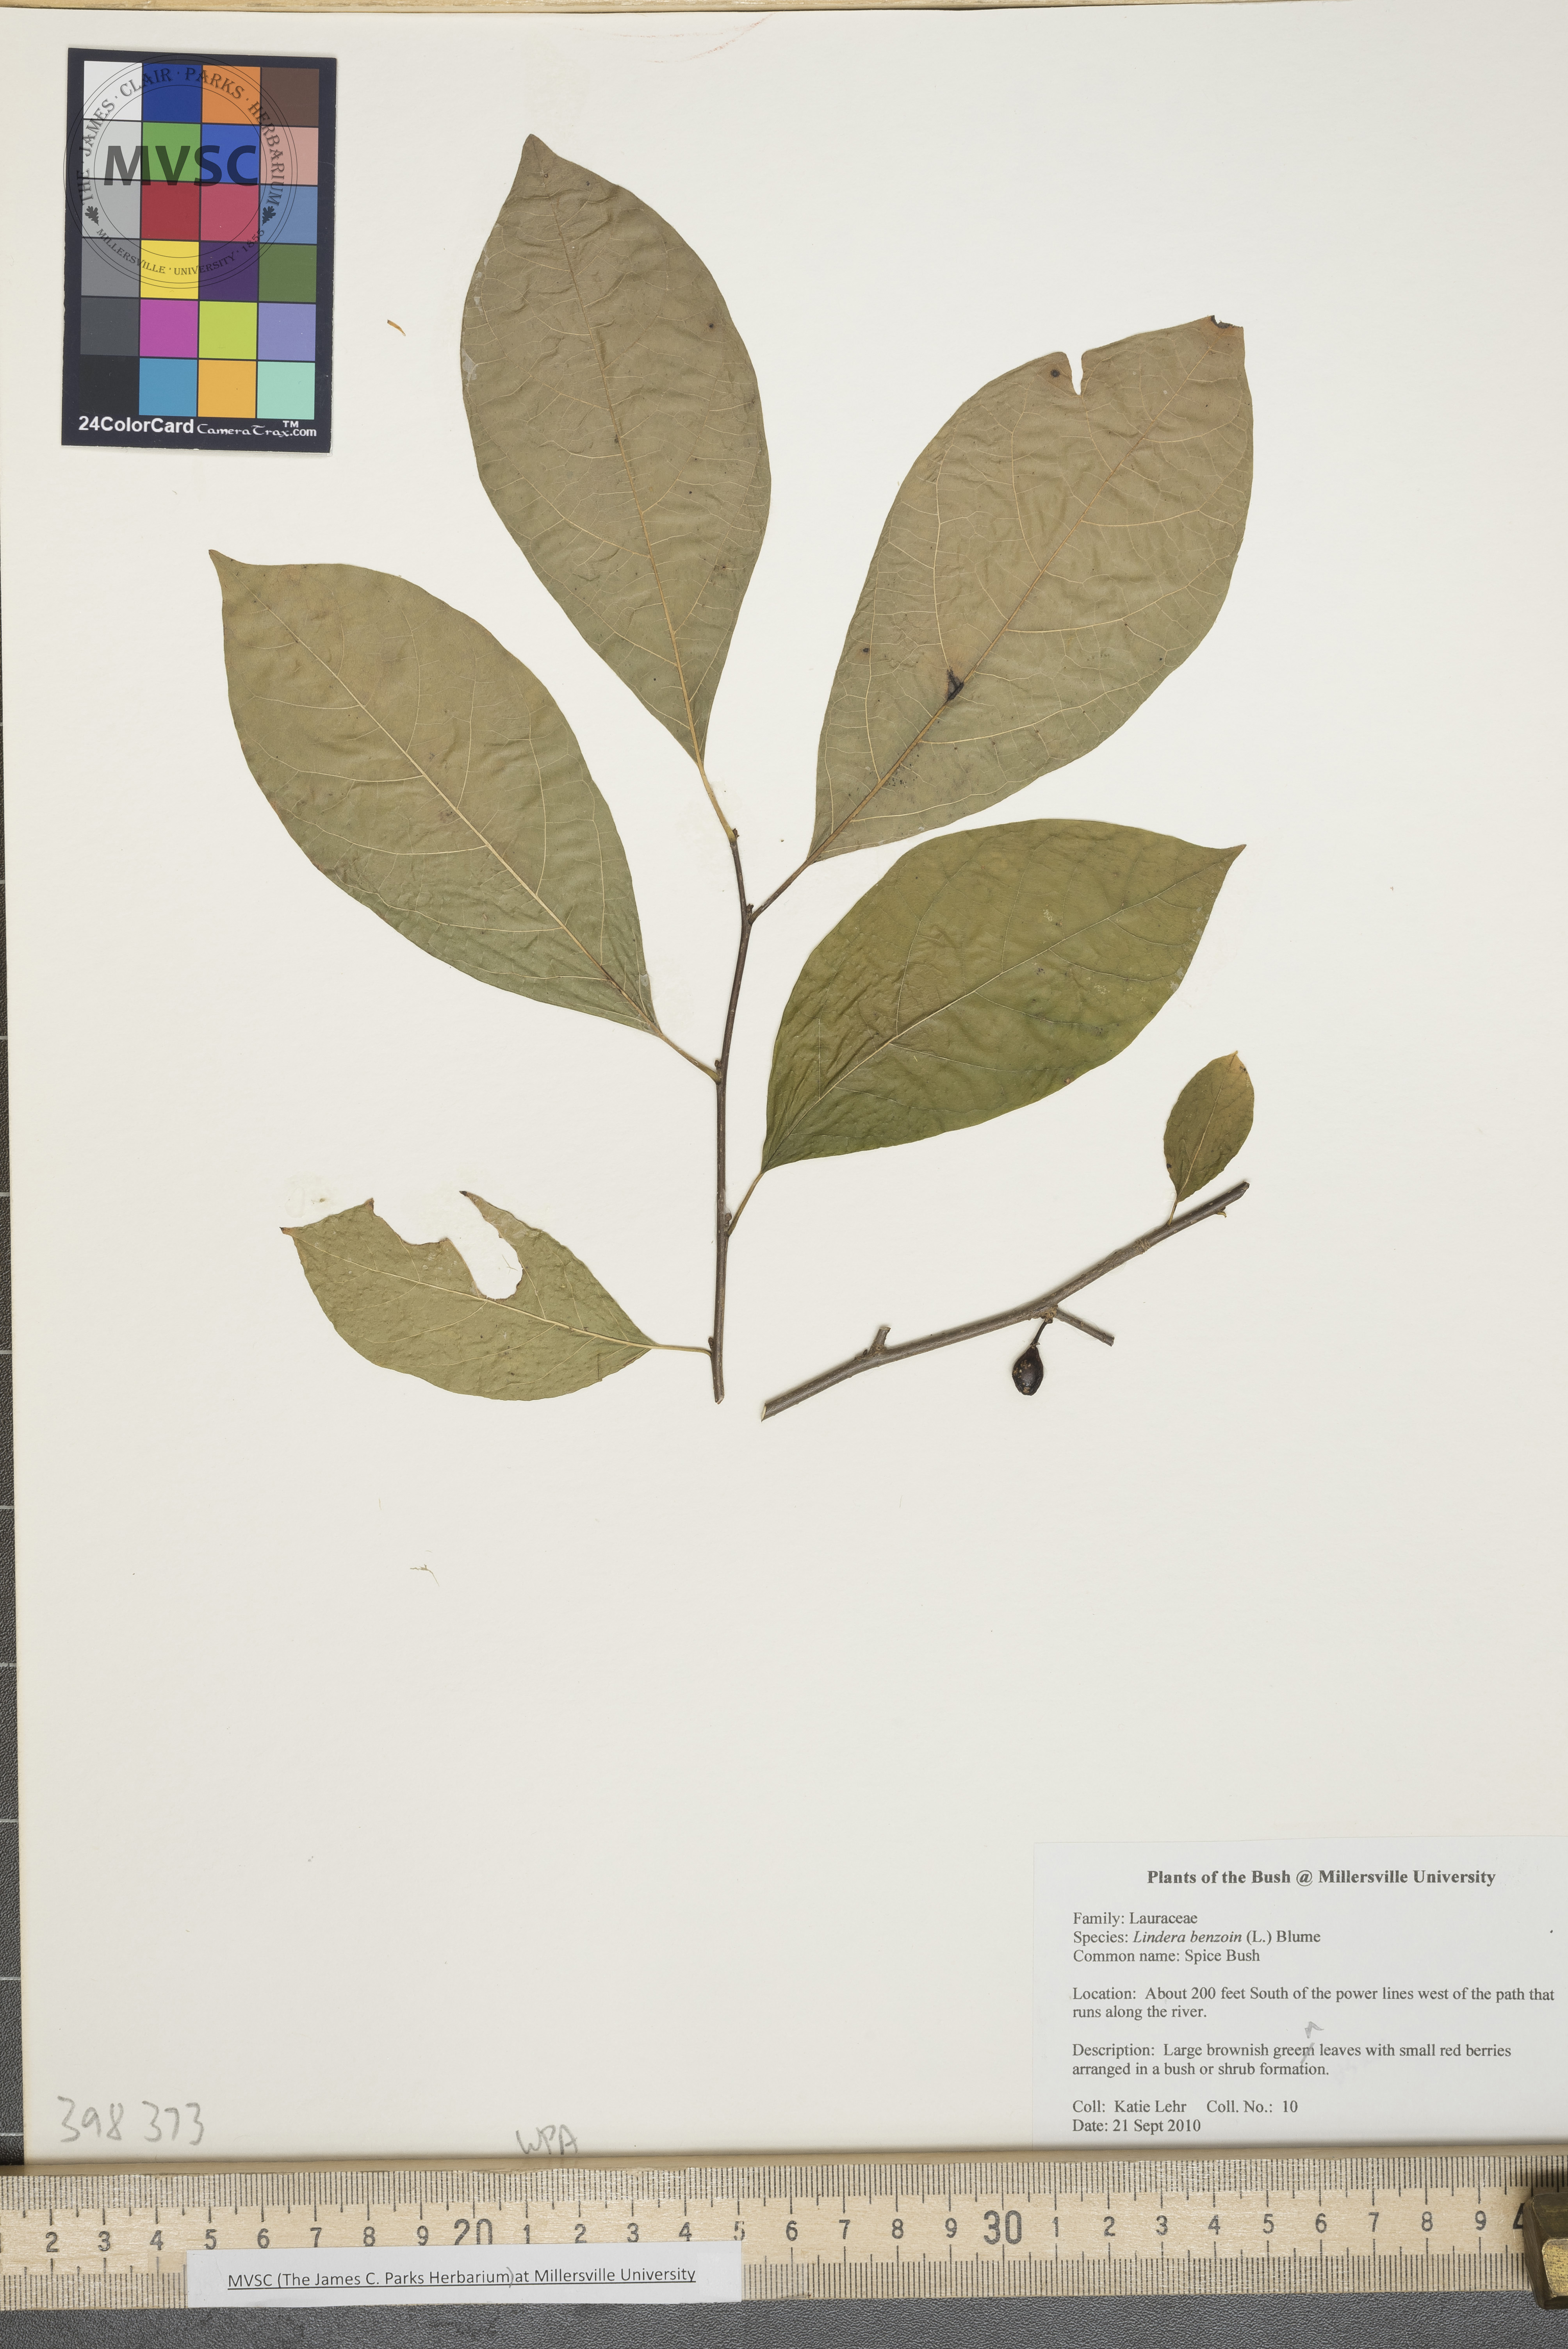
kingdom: Plantae
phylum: Tracheophyta
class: Magnoliopsida
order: Laurales
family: Lauraceae
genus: Lindera
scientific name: Lindera benzoin
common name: Spicebush
